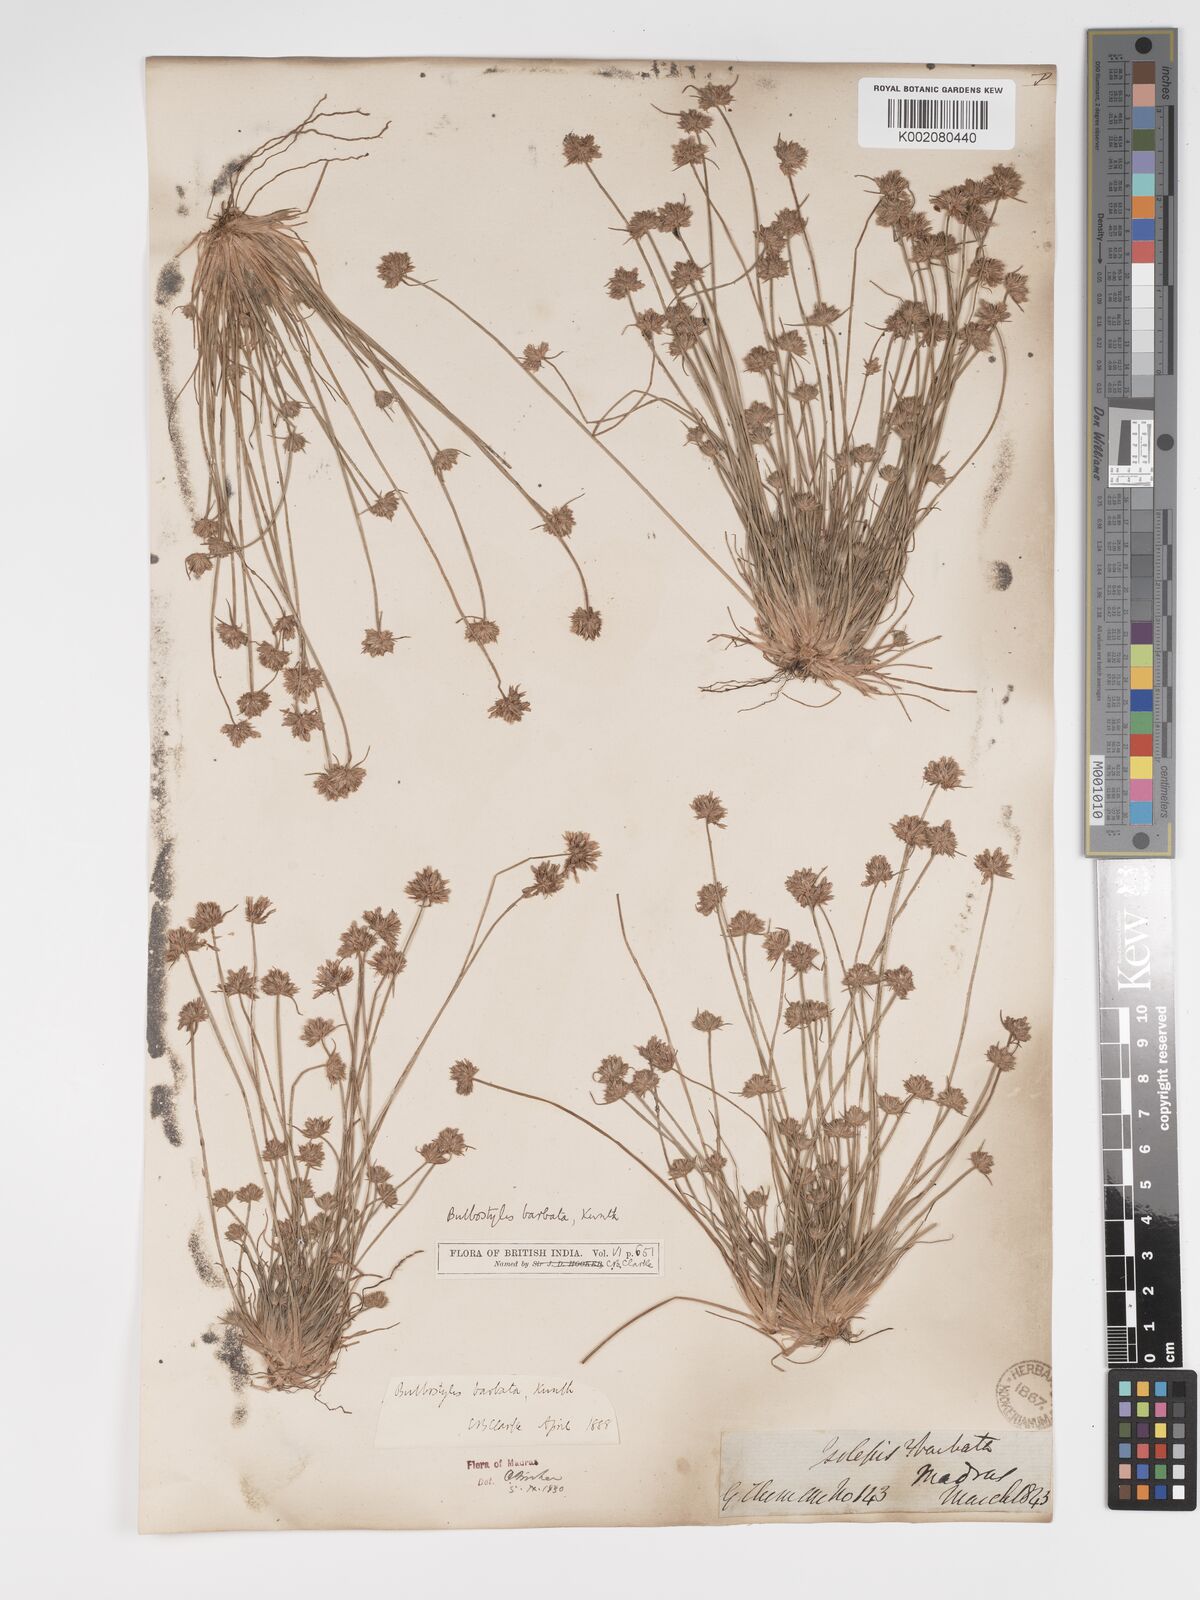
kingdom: Plantae
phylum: Tracheophyta
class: Liliopsida
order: Poales
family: Cyperaceae
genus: Bulbostylis
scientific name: Bulbostylis barbata
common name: Watergrass
